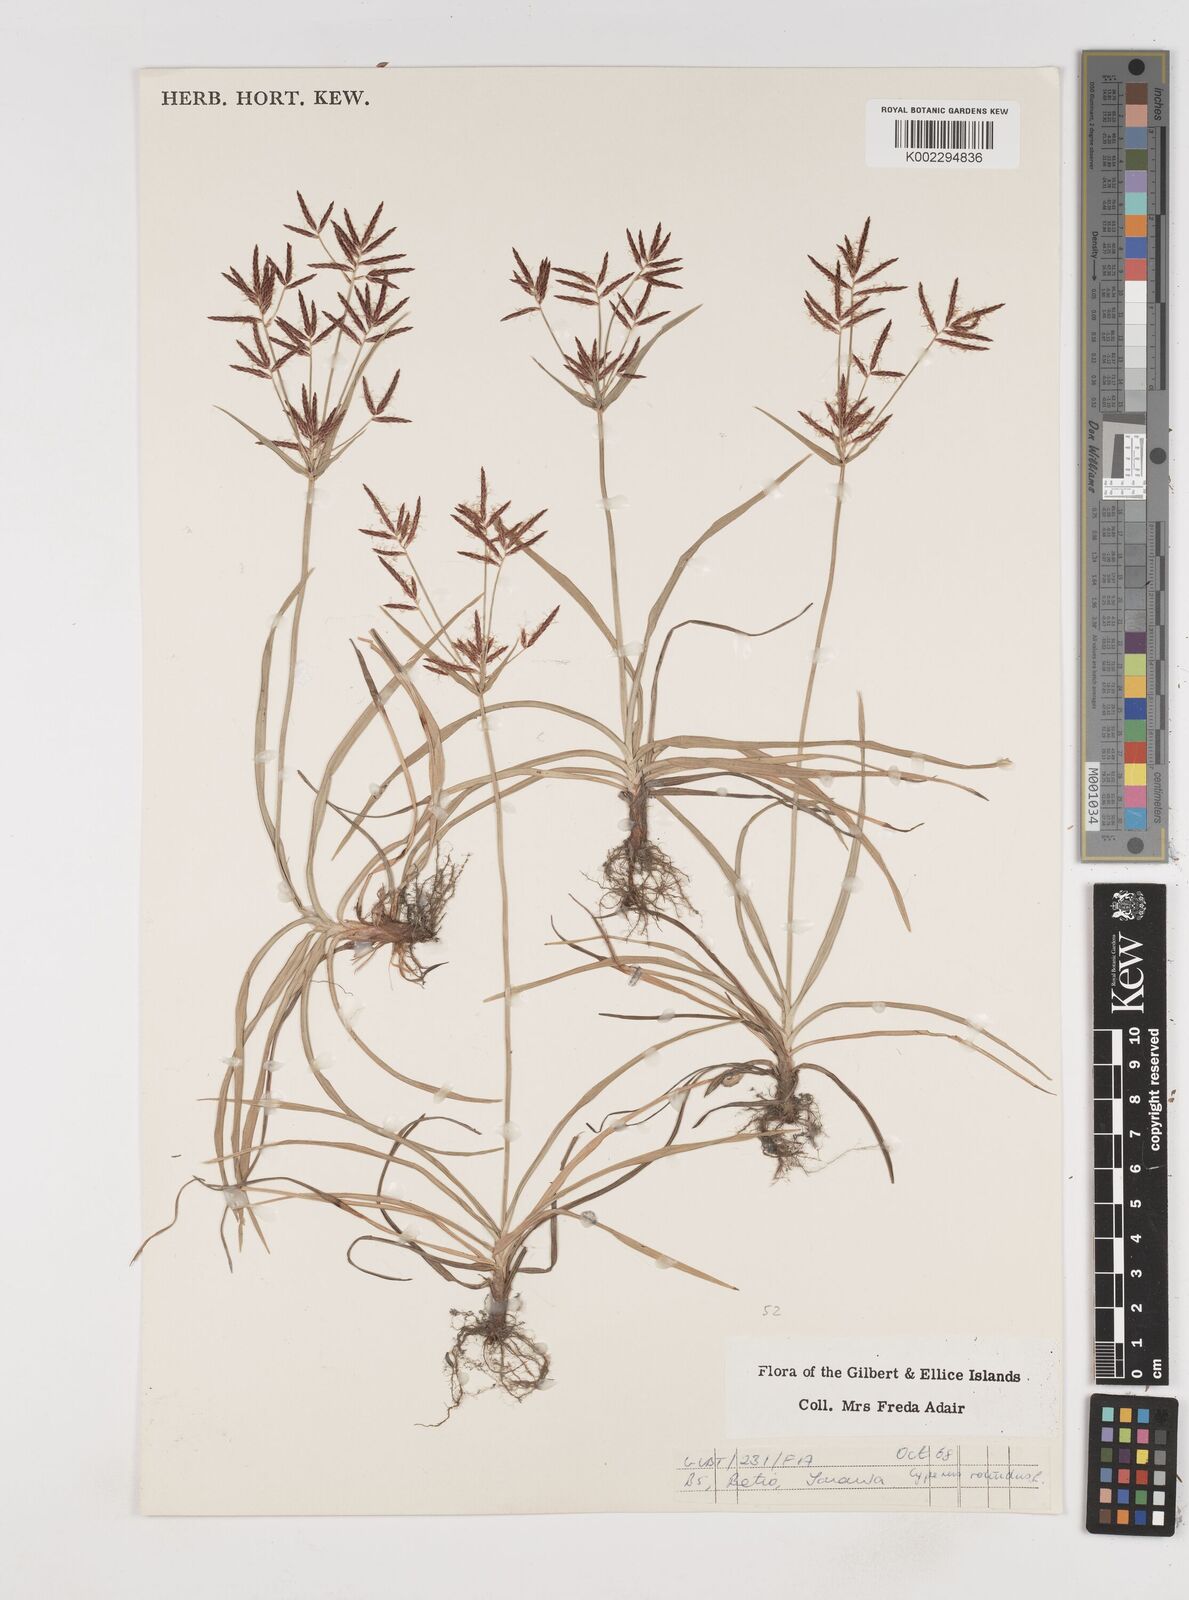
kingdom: Plantae
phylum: Tracheophyta
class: Liliopsida
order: Poales
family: Cyperaceae
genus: Cyperus
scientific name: Cyperus rotundus
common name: Nutgrass
